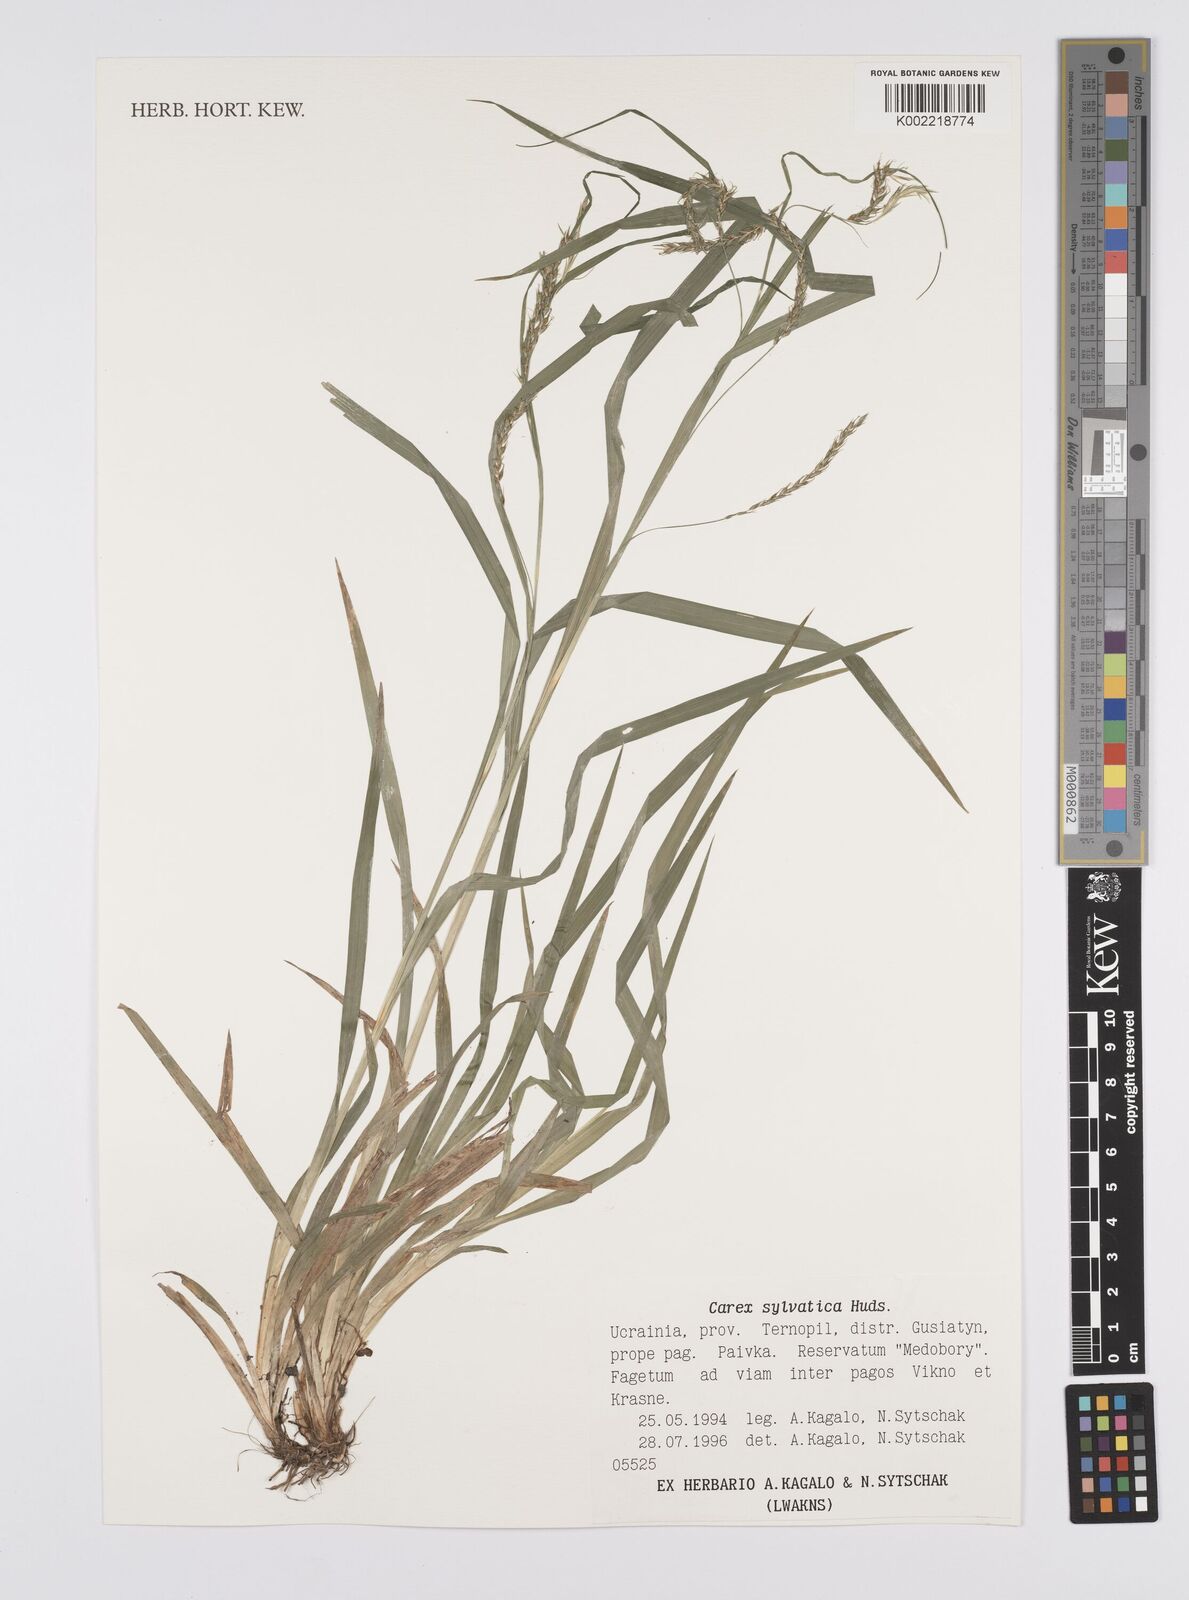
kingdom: Plantae
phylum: Tracheophyta
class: Liliopsida
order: Poales
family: Cyperaceae
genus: Carex
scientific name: Carex sylvatica
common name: Wood-sedge
